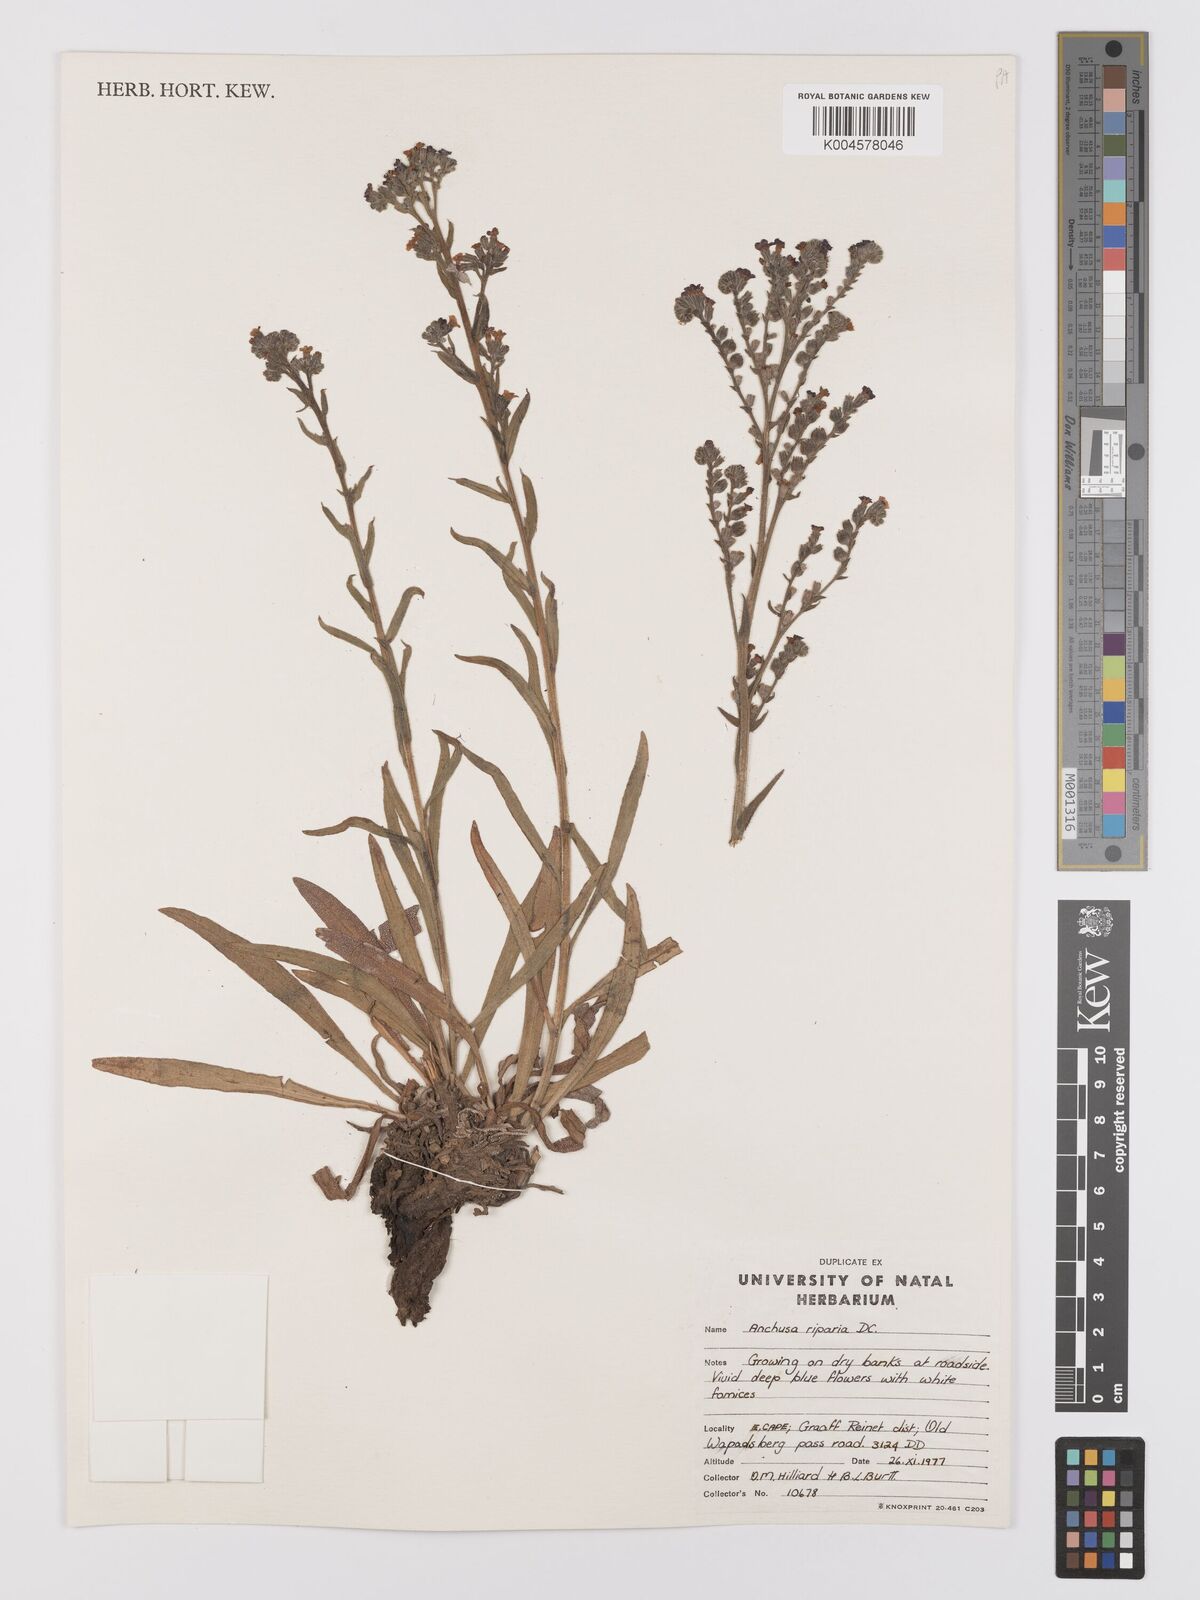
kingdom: Plantae
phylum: Tracheophyta
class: Magnoliopsida
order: Boraginales
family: Boraginaceae
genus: Anchusa
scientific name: Anchusa capensis
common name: Cape bugloss
